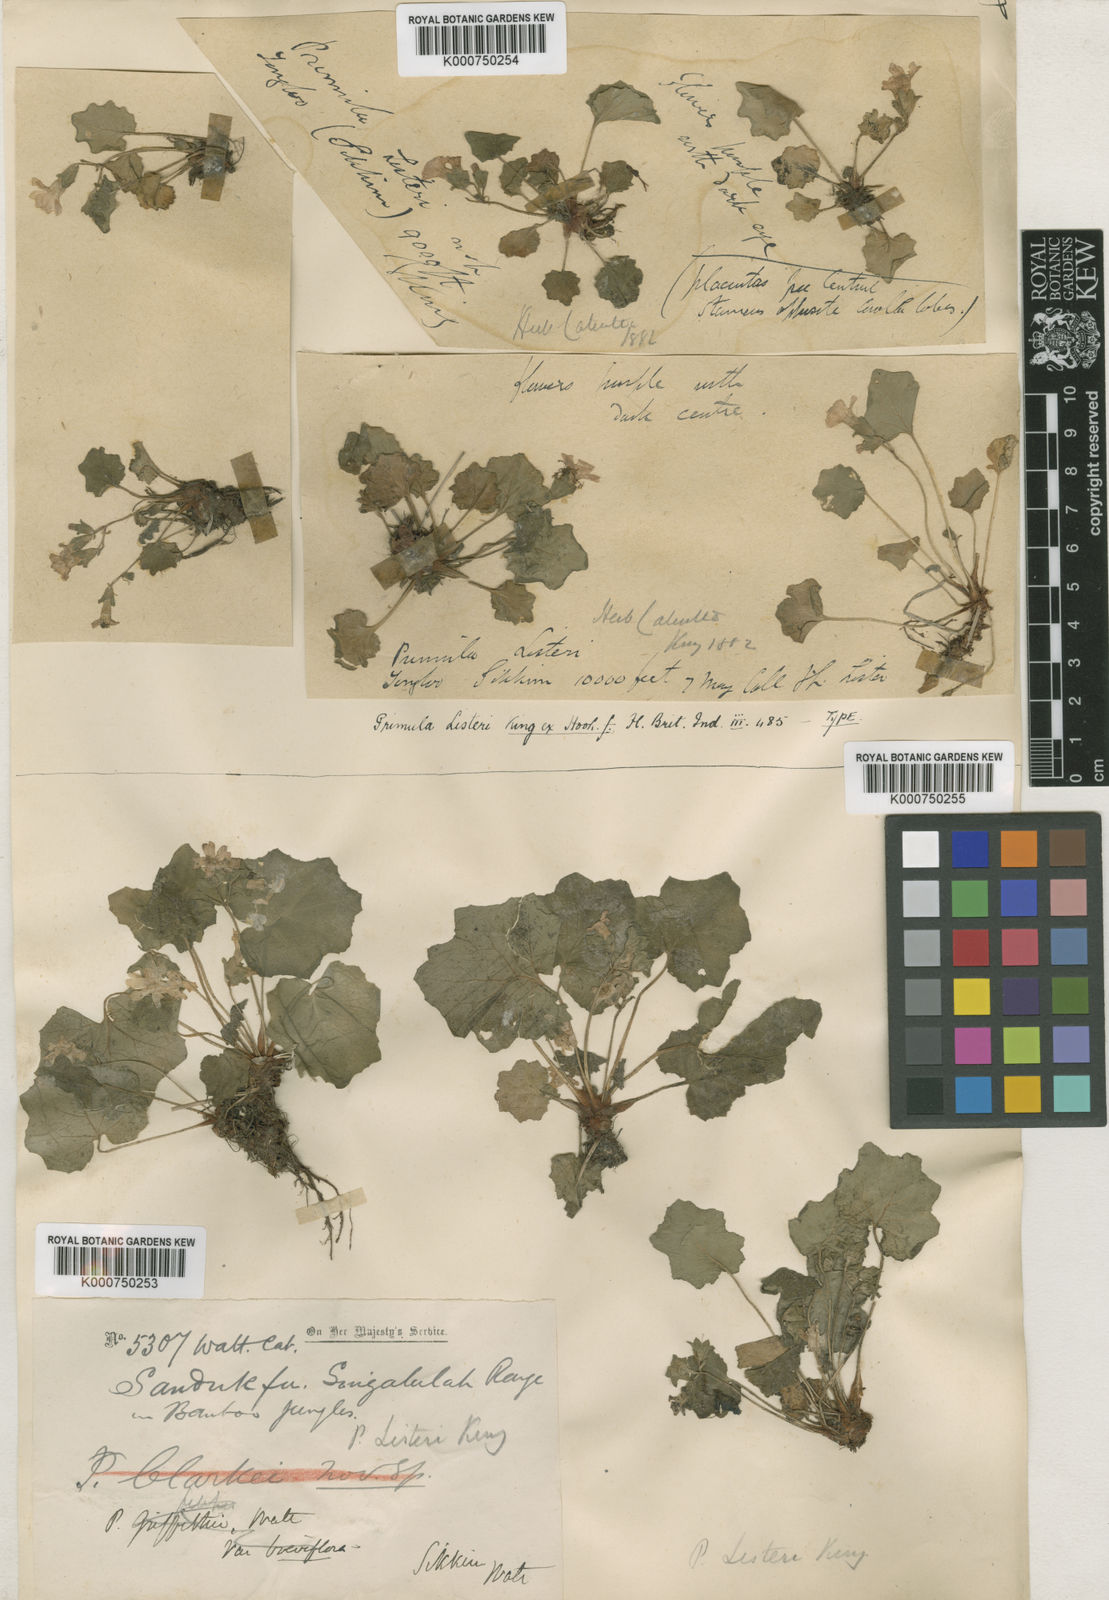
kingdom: Plantae
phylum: Tracheophyta
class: Magnoliopsida
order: Ericales
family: Primulaceae
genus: Primula
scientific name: Primula listeri
